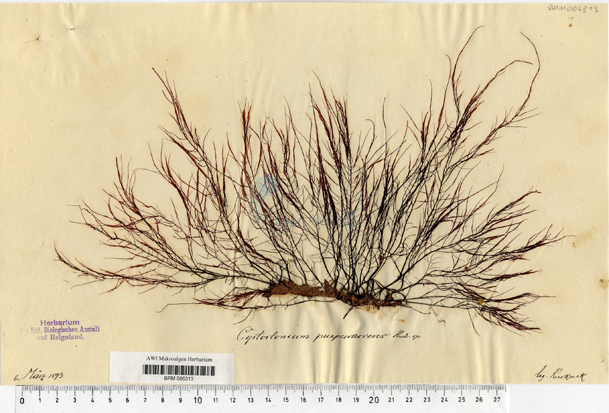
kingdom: Plantae
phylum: Rhodophyta
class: Florideophyceae
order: Gigartinales
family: Cystocloniaceae
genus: Cystoclonium
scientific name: Cystoclonium purpureum
